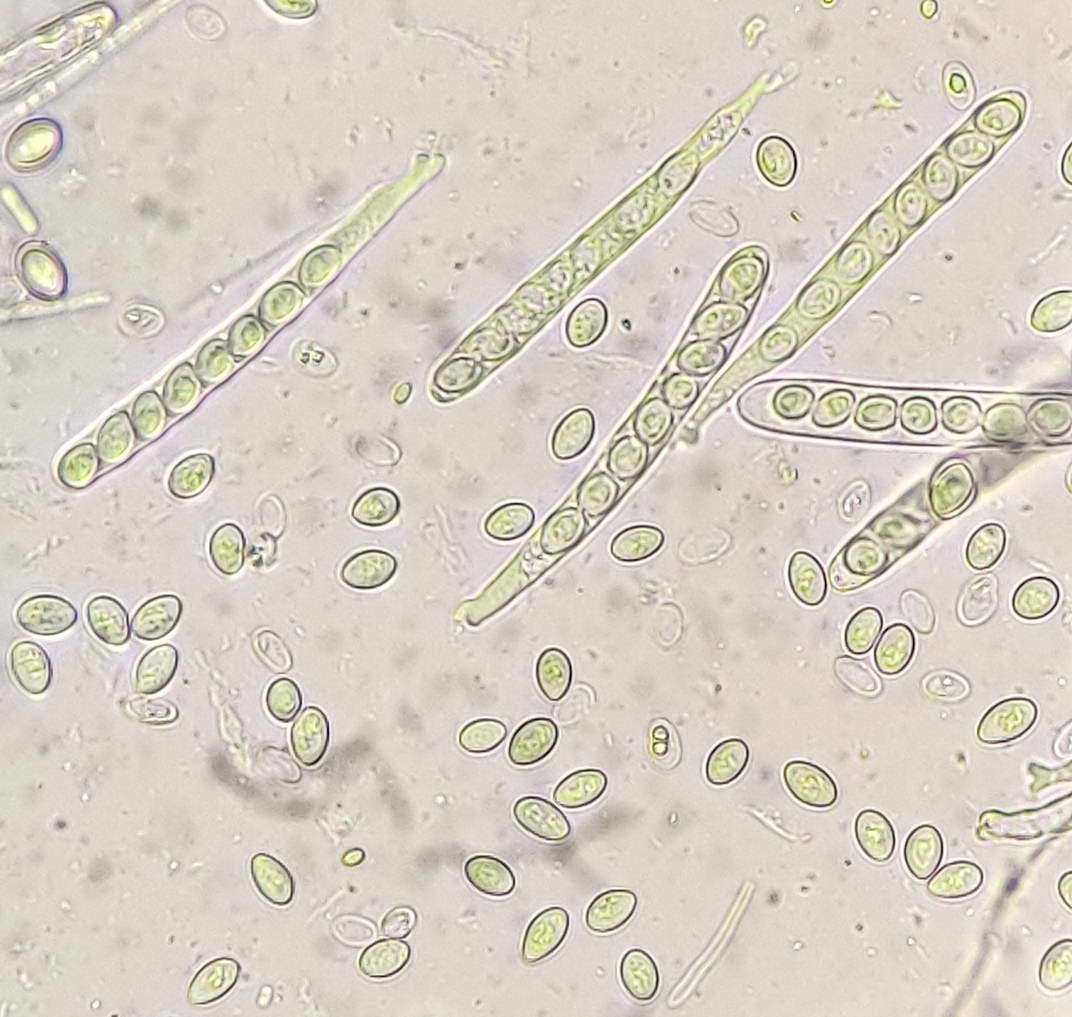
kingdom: Fungi
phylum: Ascomycota
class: Leotiomycetes
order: Helotiales
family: Lachnaceae
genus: Perrotia
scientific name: Perrotia gallica
